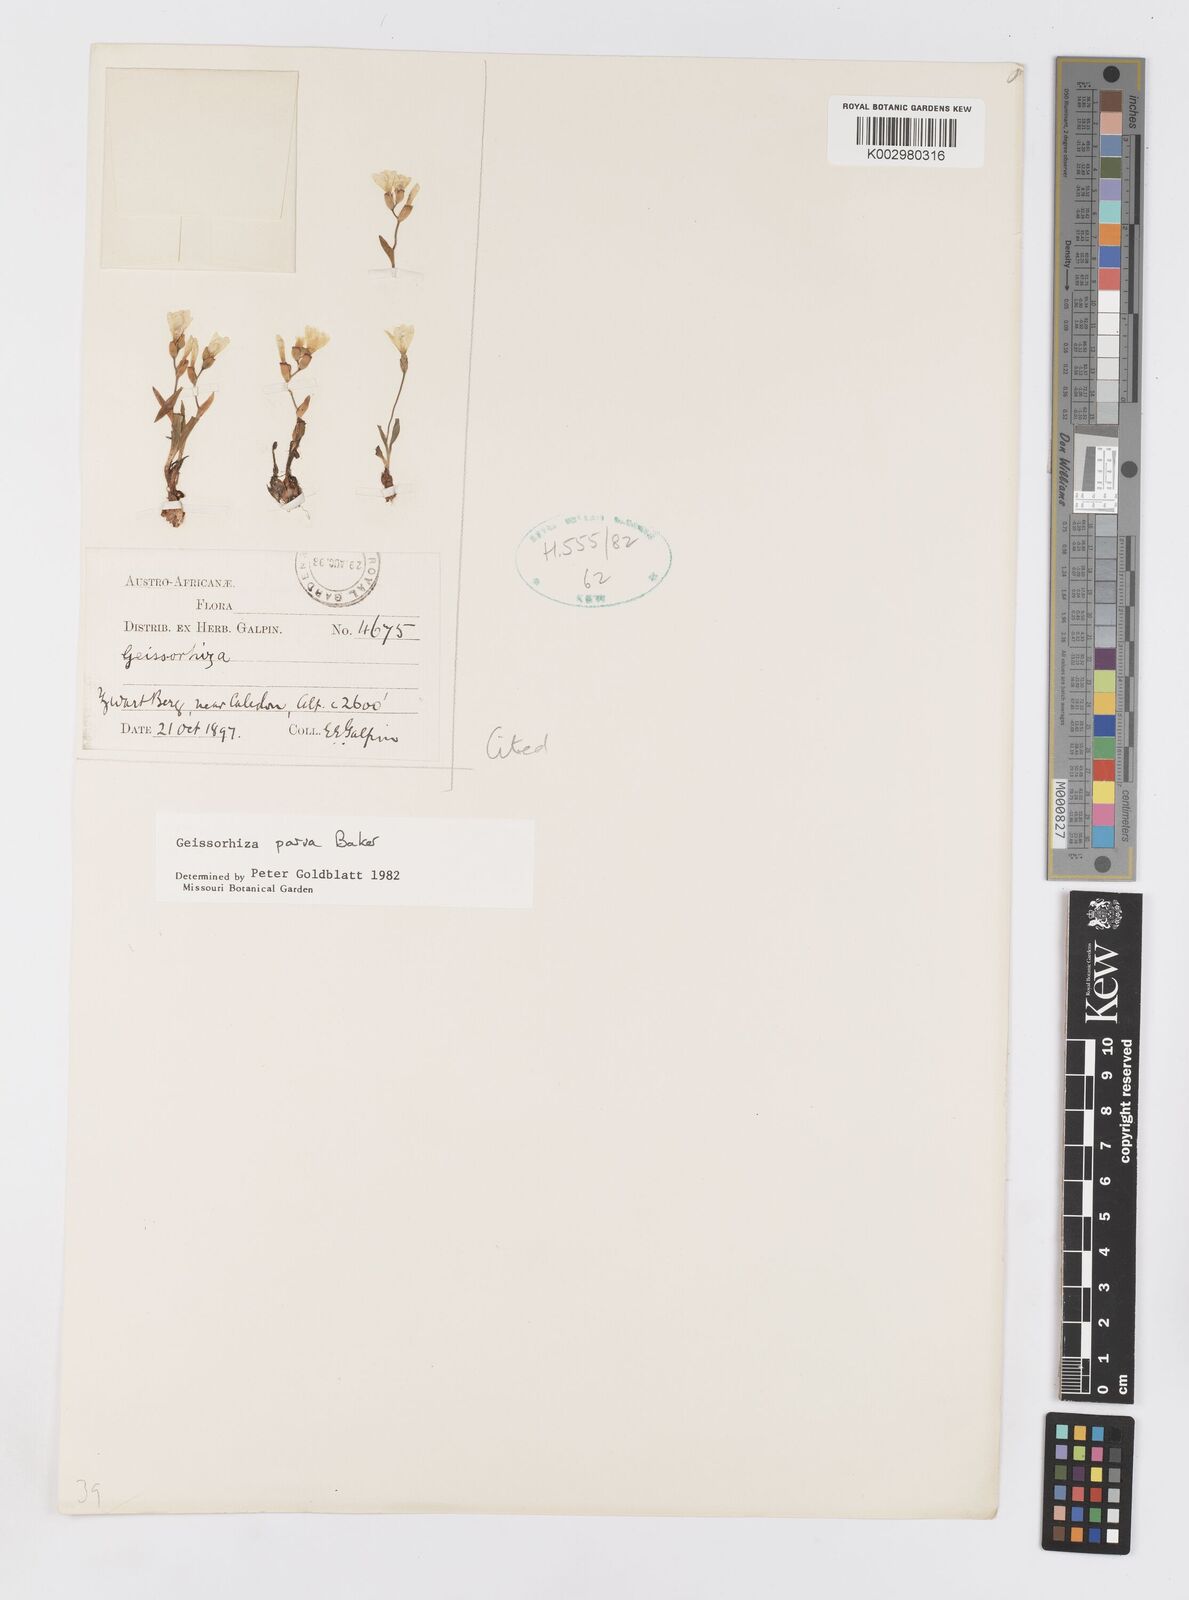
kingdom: Plantae
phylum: Tracheophyta
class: Liliopsida
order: Asparagales
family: Iridaceae
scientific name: Iridaceae
